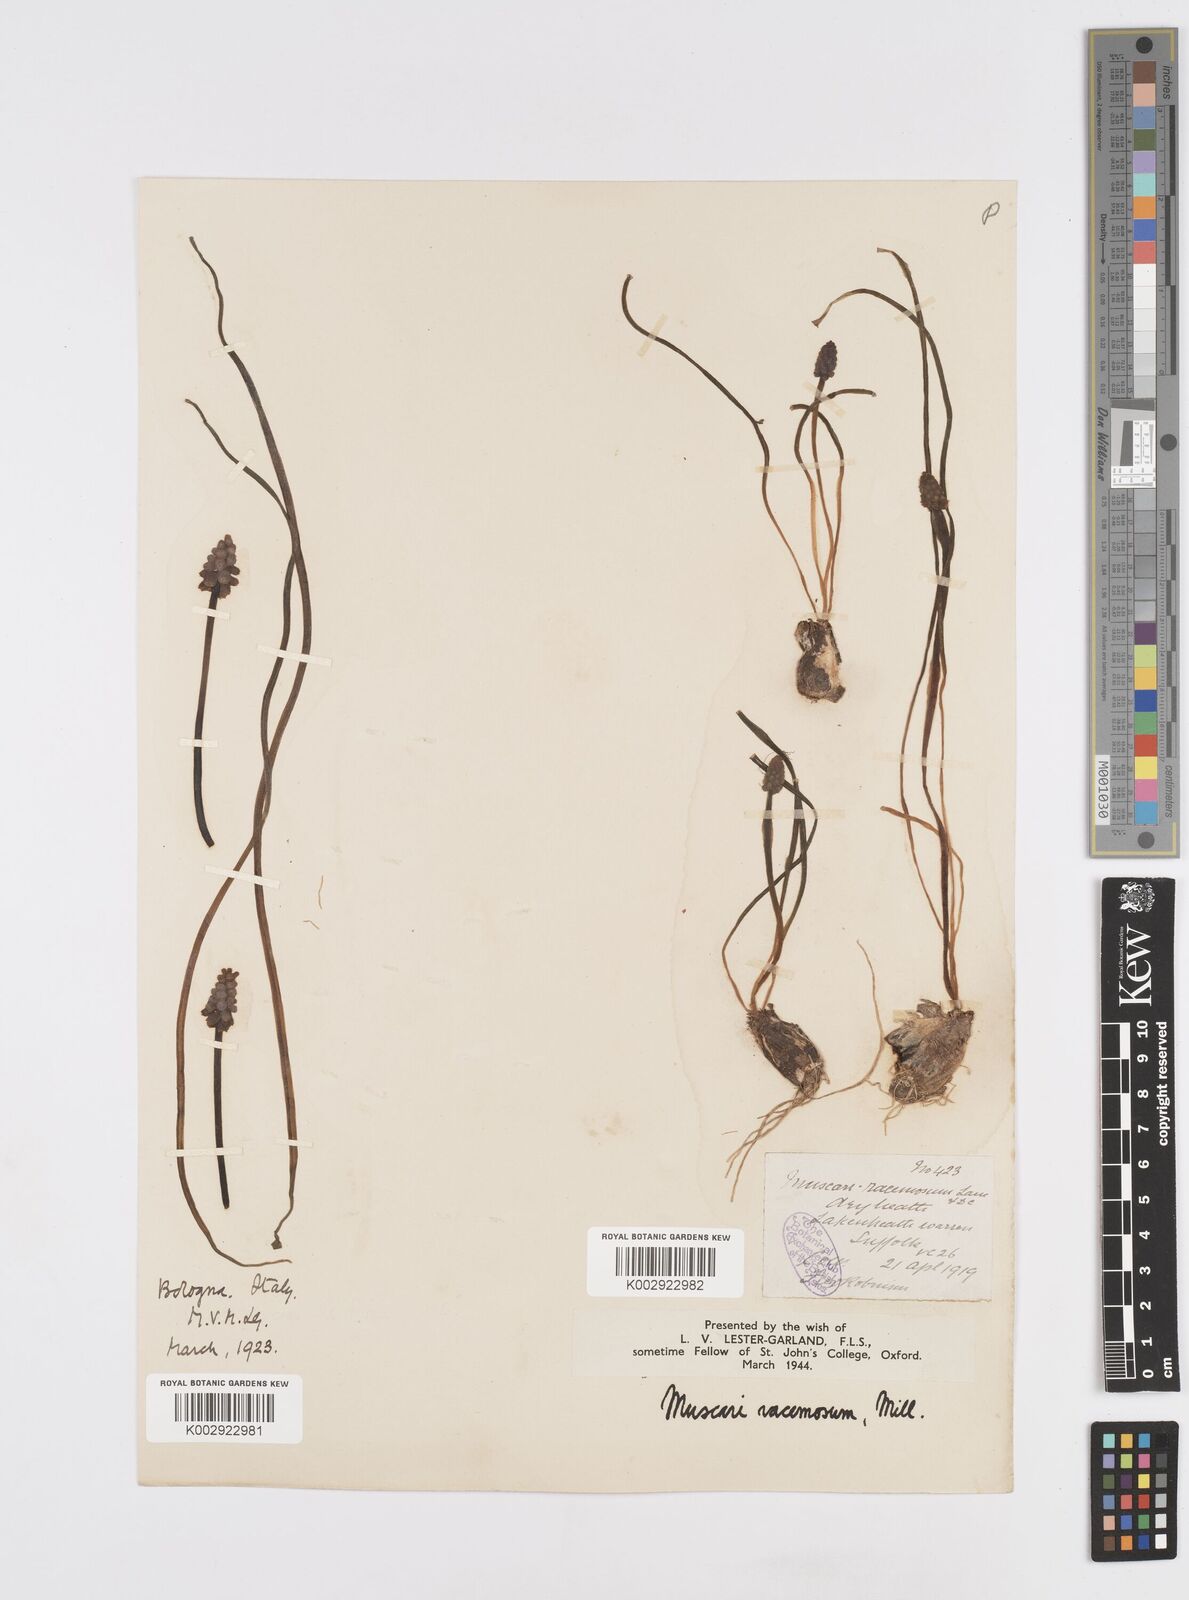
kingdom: Plantae
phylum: Tracheophyta
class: Liliopsida
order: Asparagales
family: Asparagaceae
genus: Muscarimia
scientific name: Muscarimia muscari
